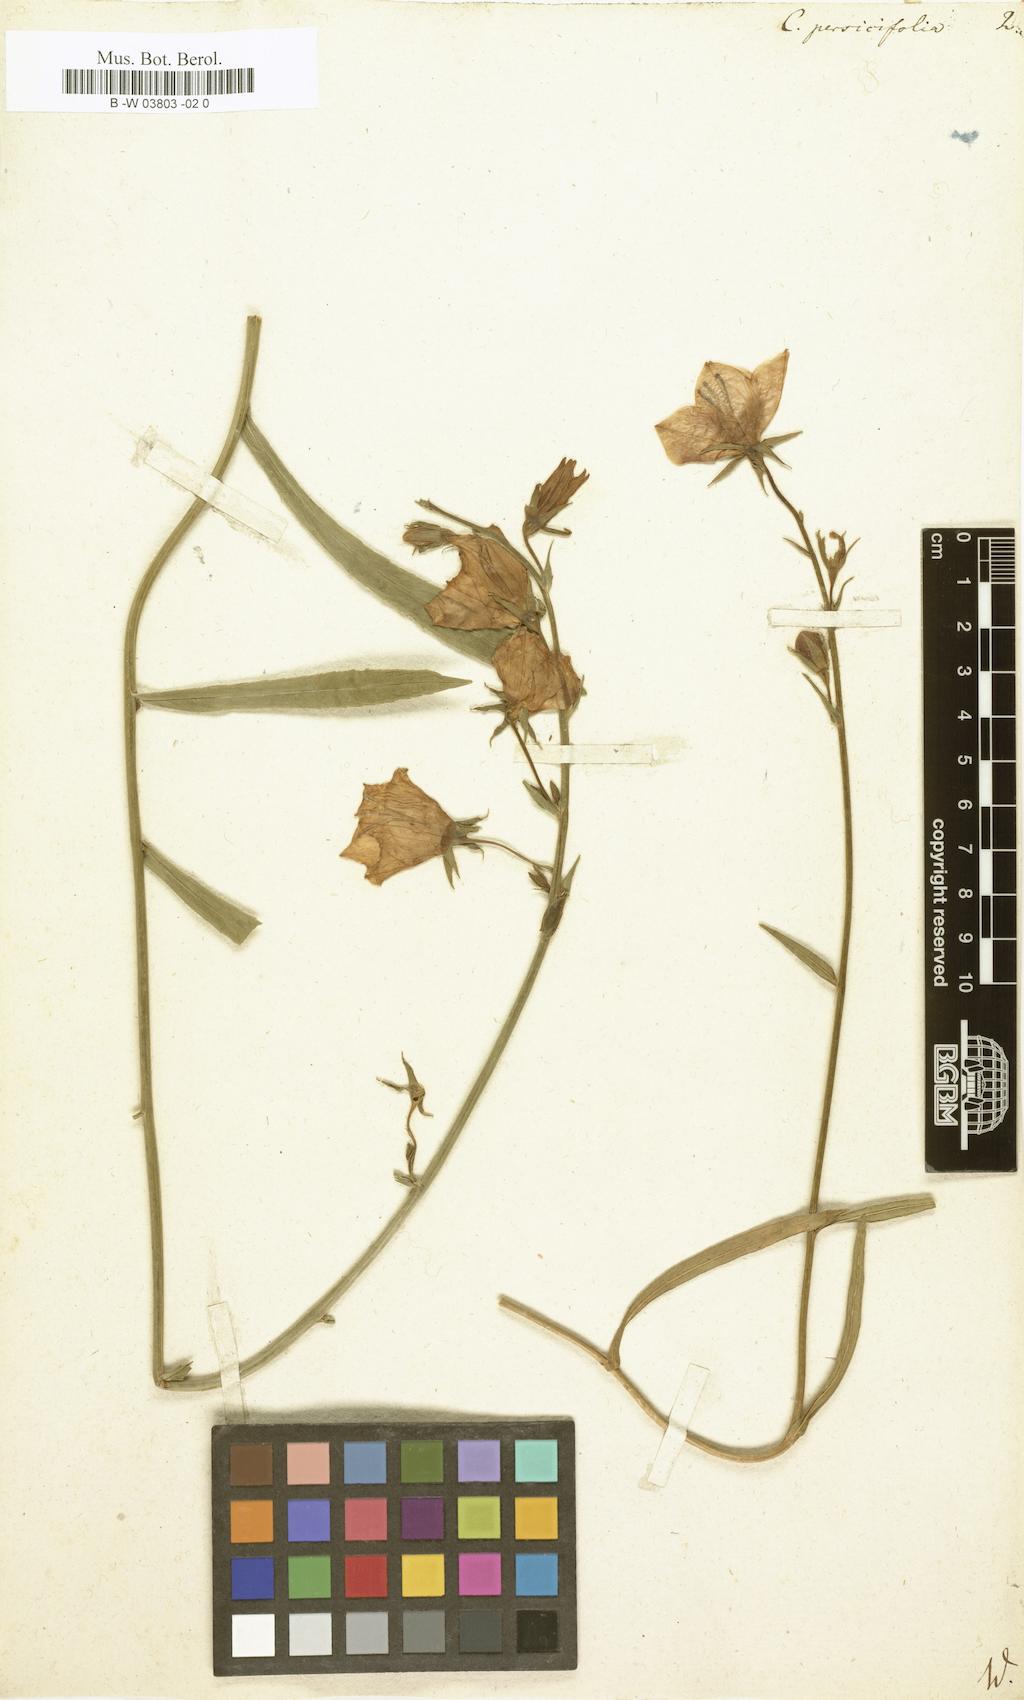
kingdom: Plantae
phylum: Tracheophyta
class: Magnoliopsida
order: Asterales
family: Campanulaceae
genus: Campanula
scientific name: Campanula persicifolia
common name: Peach-leaved bellflower
